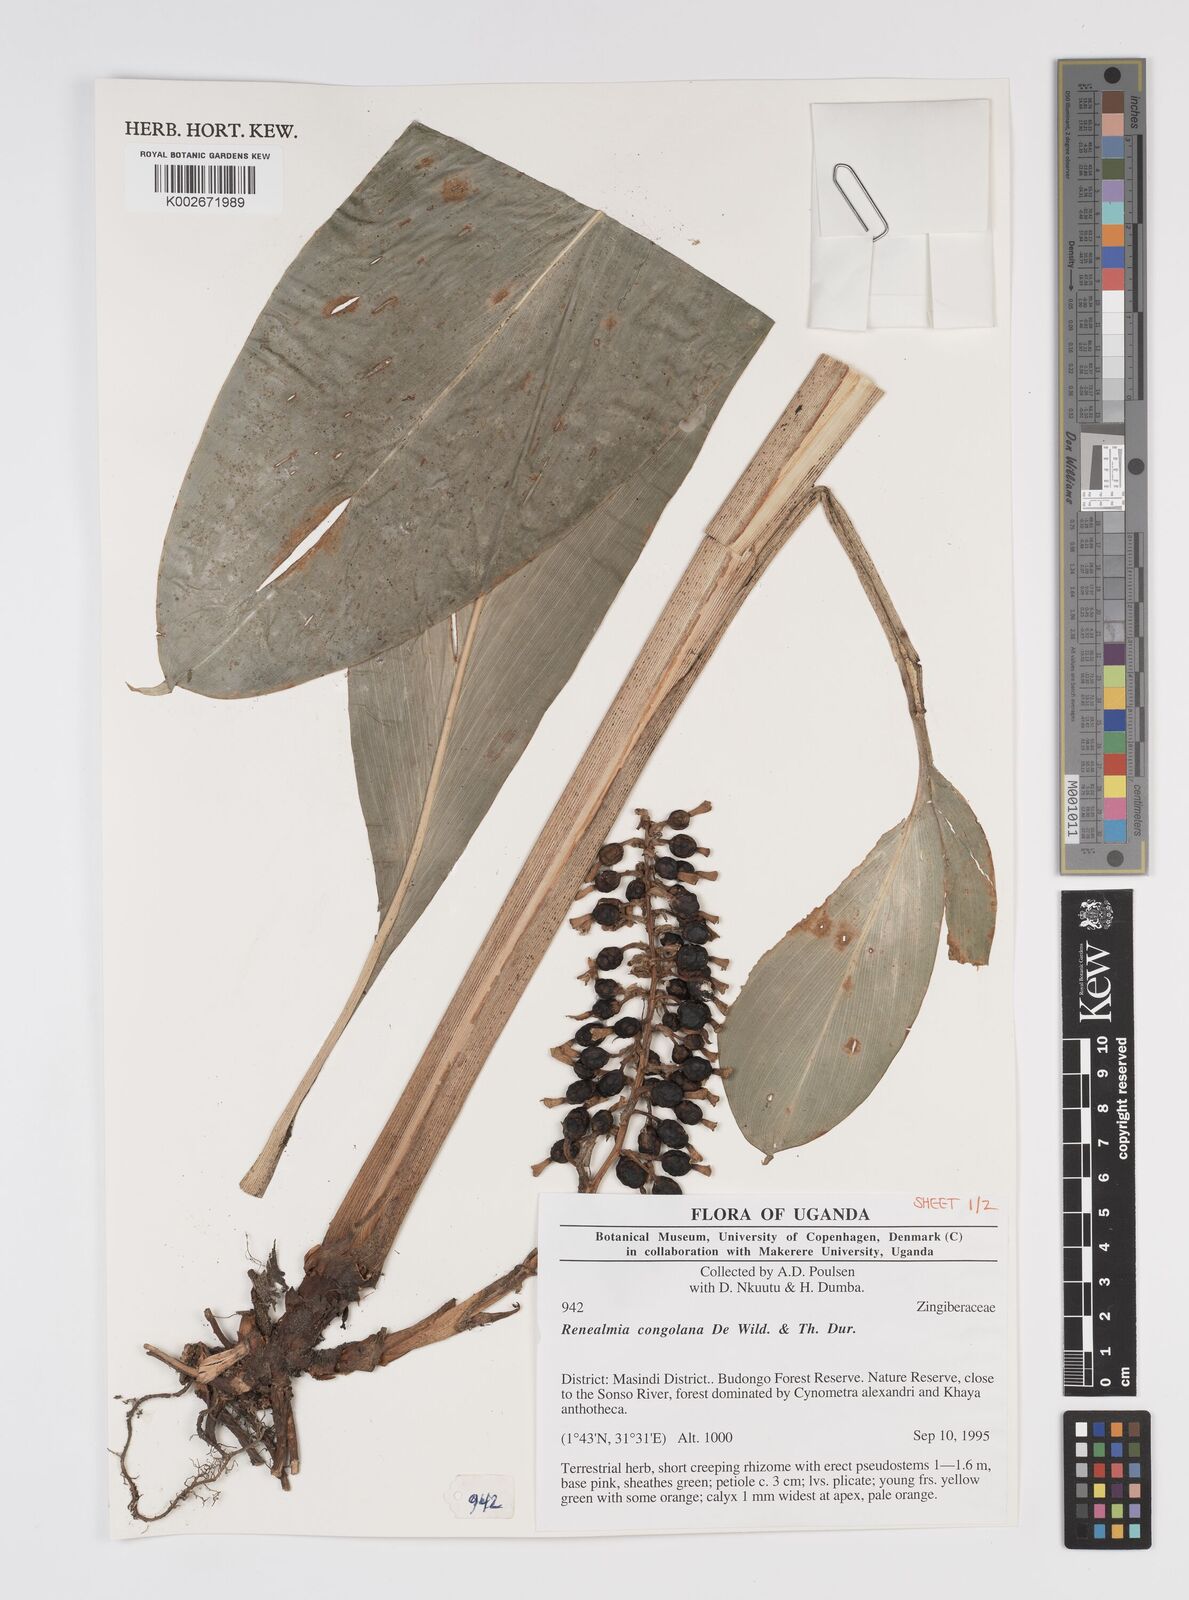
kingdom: Plantae
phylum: Tracheophyta
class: Liliopsida
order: Zingiberales
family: Zingiberaceae
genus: Renealmia
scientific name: Renealmia congolana
